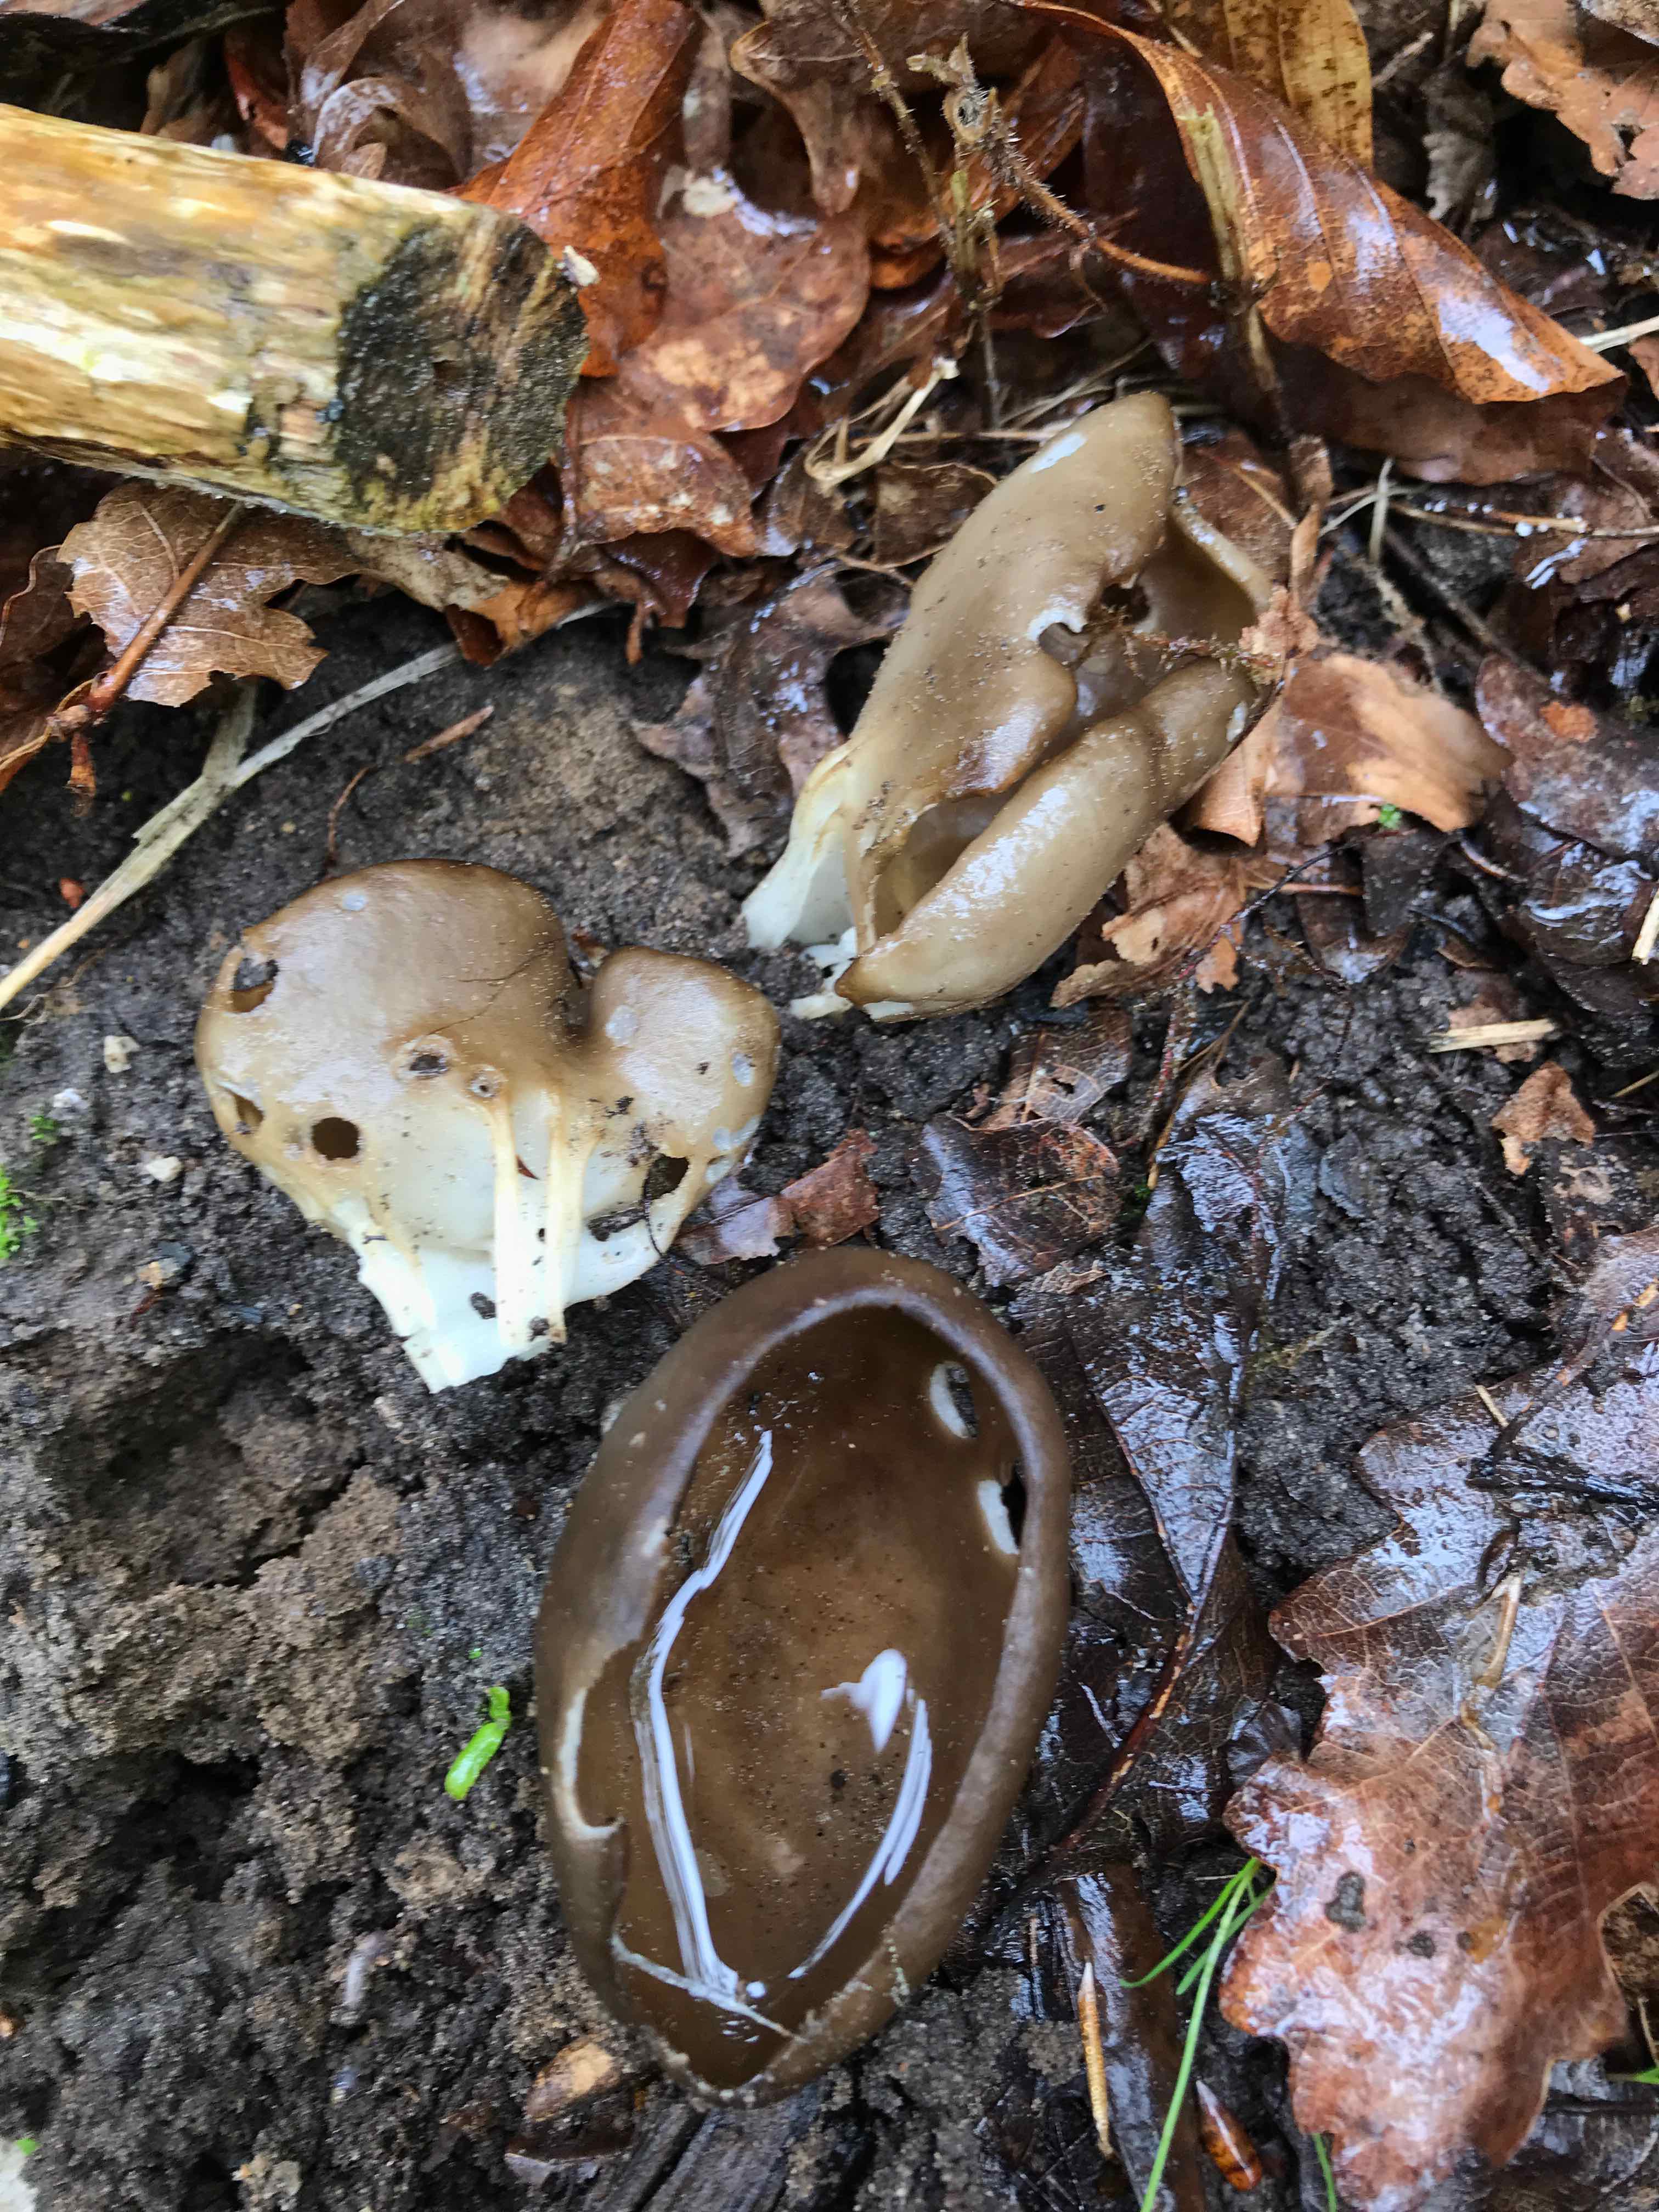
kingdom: Fungi
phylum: Ascomycota
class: Pezizomycetes
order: Pezizales
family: Helvellaceae
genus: Helvella
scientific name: Helvella acetabulum
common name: pokal-foldhat
